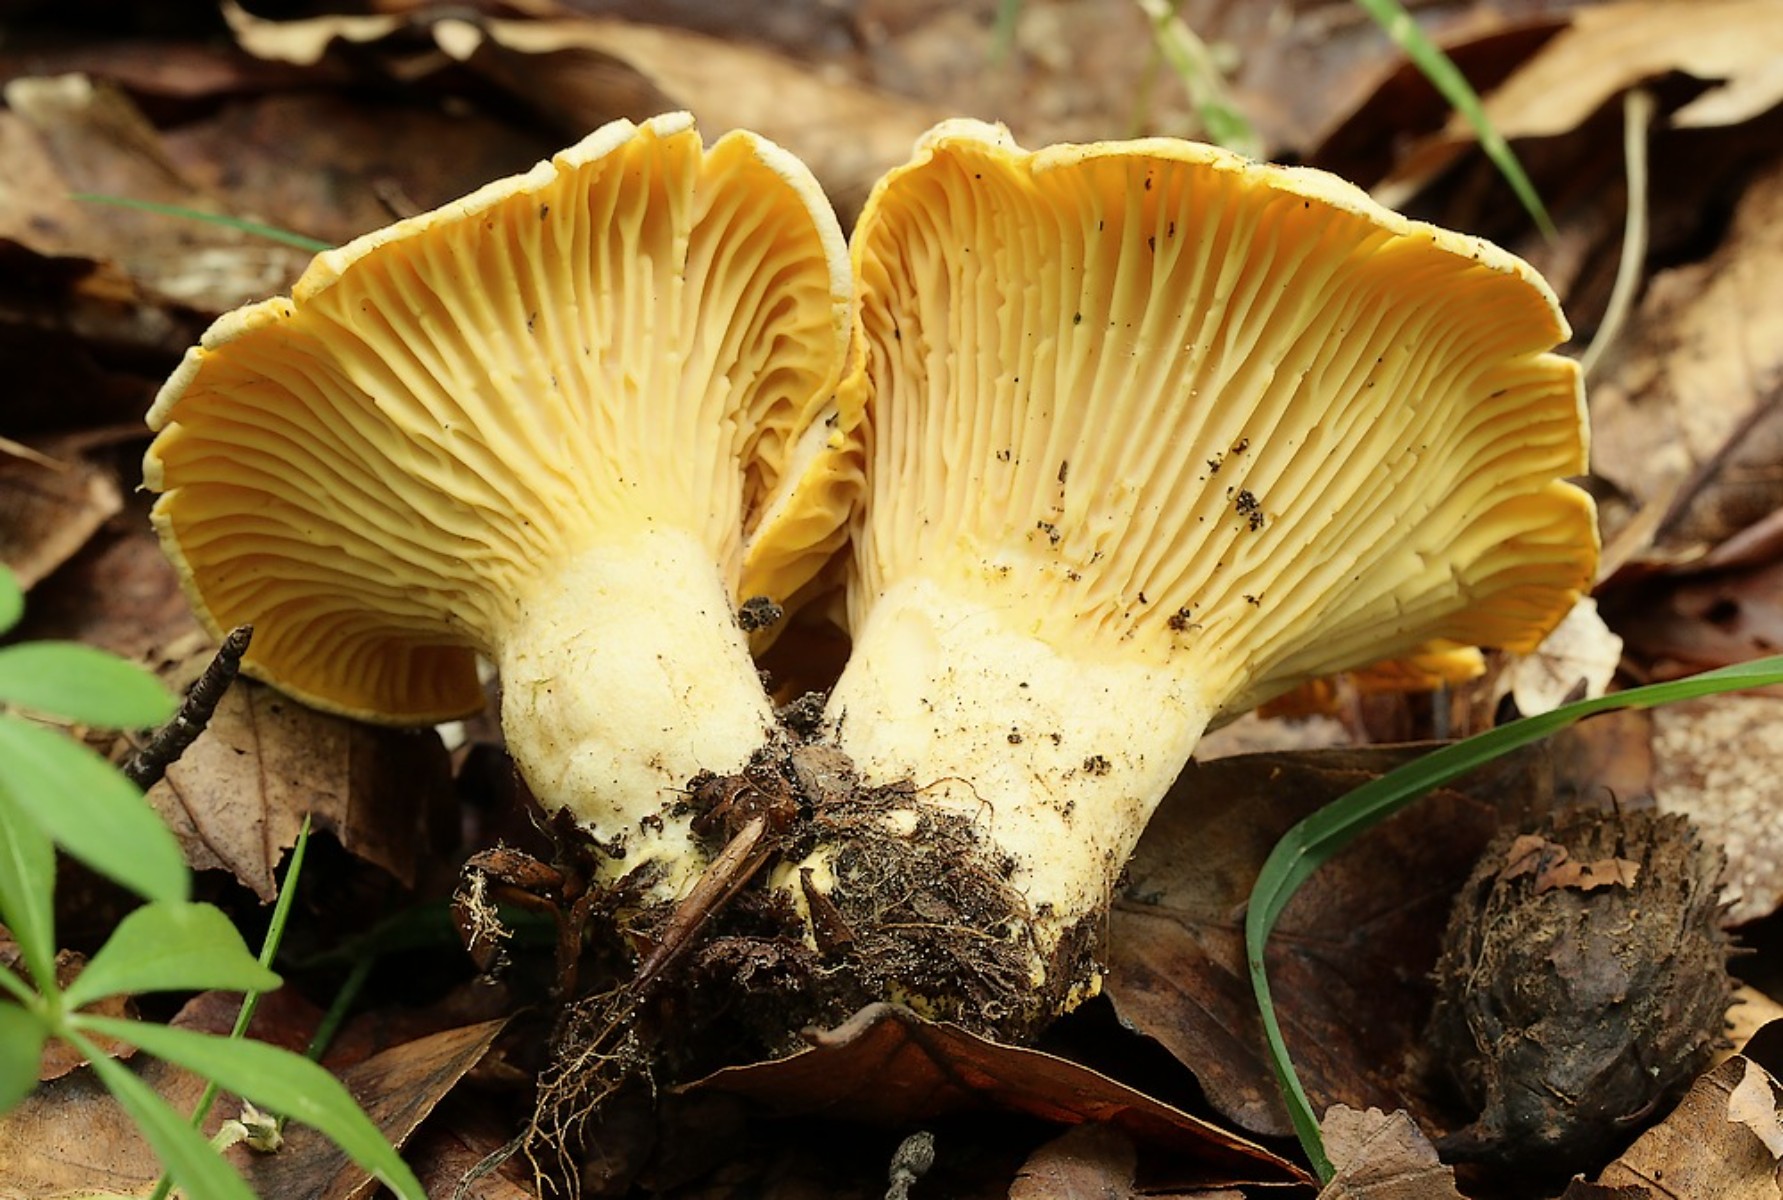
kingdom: Fungi
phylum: Basidiomycota
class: Agaricomycetes
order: Cantharellales
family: Hydnaceae
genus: Cantharellus
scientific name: Cantharellus pallens
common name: bleg kantarel
